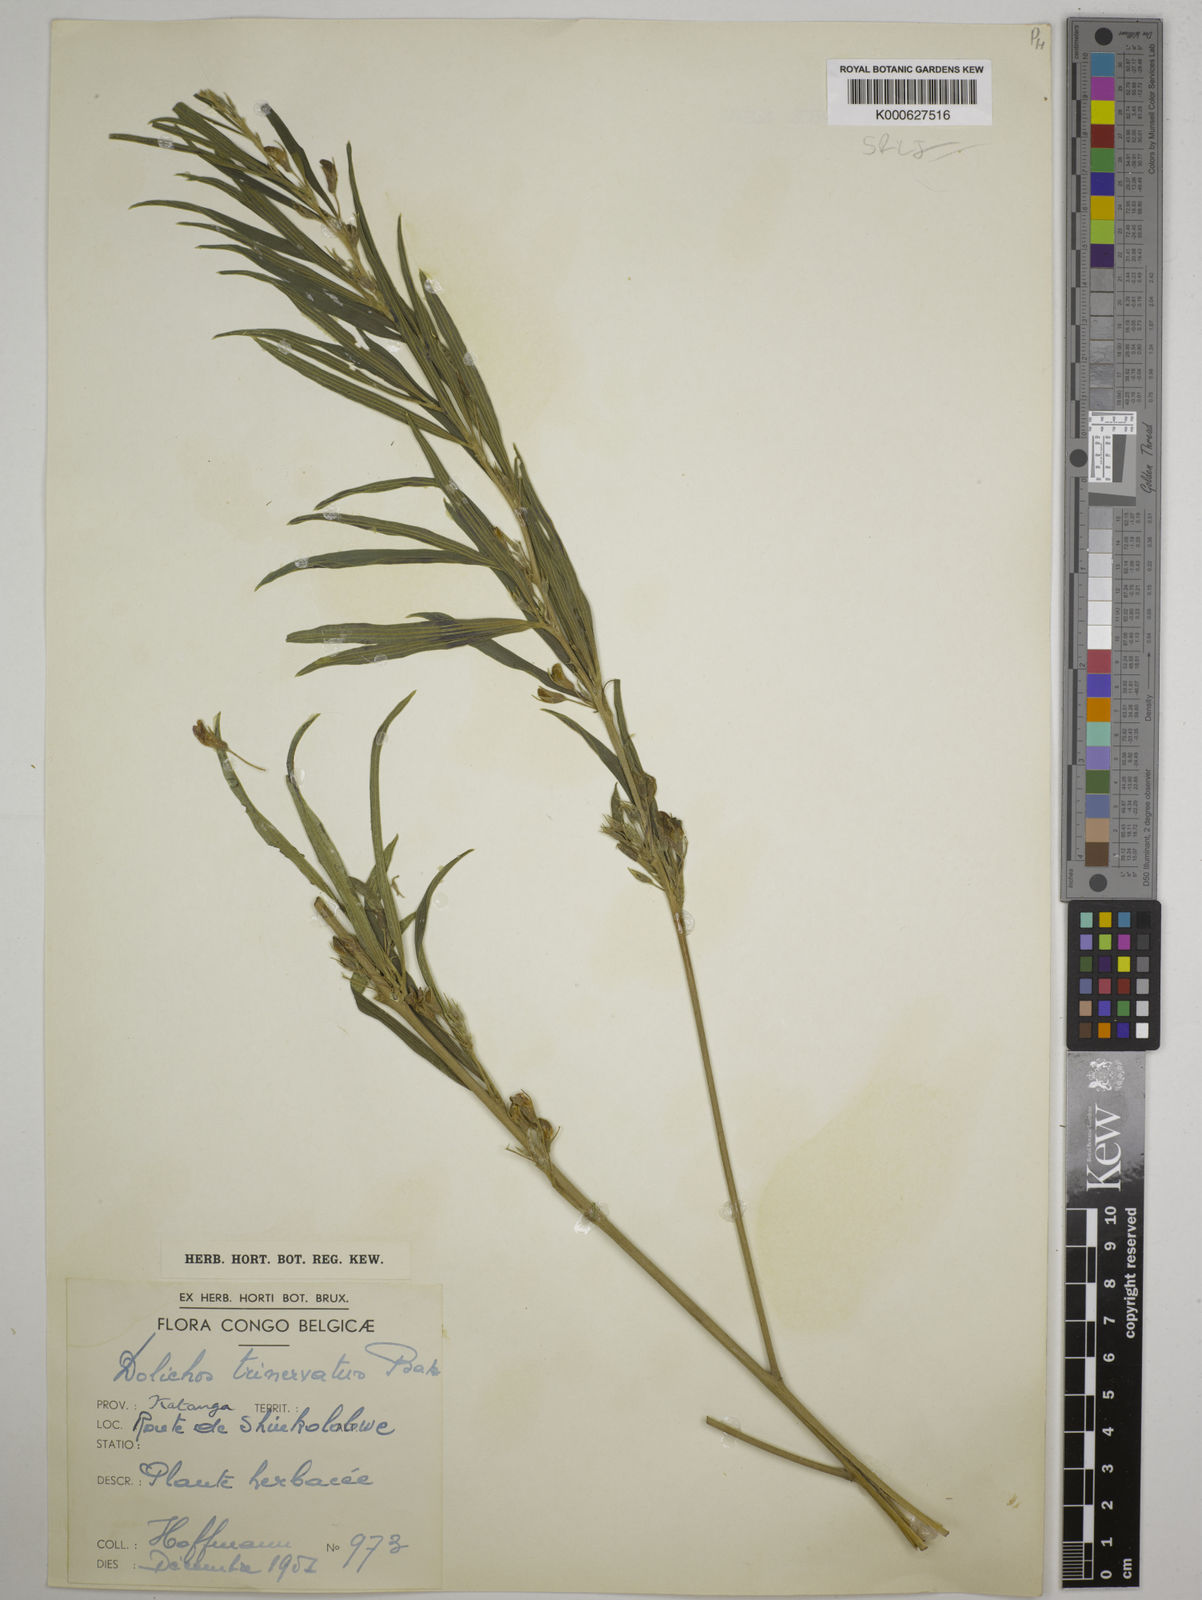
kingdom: Plantae
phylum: Tracheophyta
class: Magnoliopsida
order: Fabales
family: Fabaceae
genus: Dolichos
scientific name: Dolichos trinervatus
